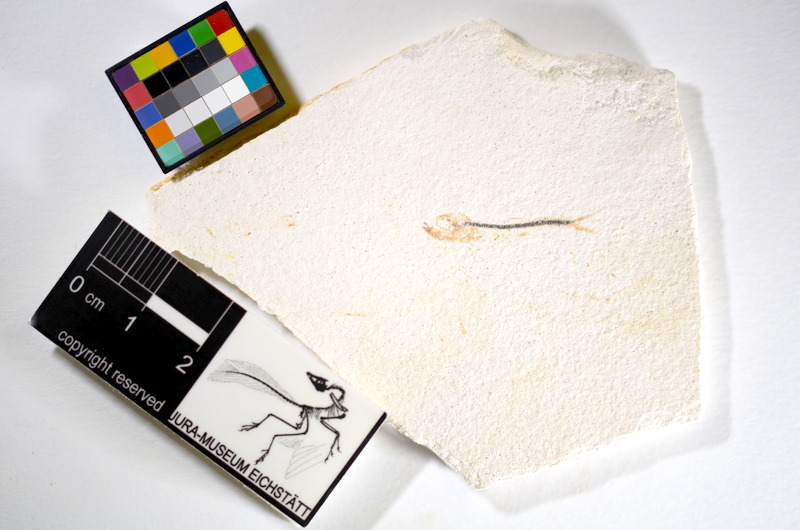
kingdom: Animalia
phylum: Chordata
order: Salmoniformes
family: Orthogonikleithridae
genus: Orthogonikleithrus
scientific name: Orthogonikleithrus hoelli
